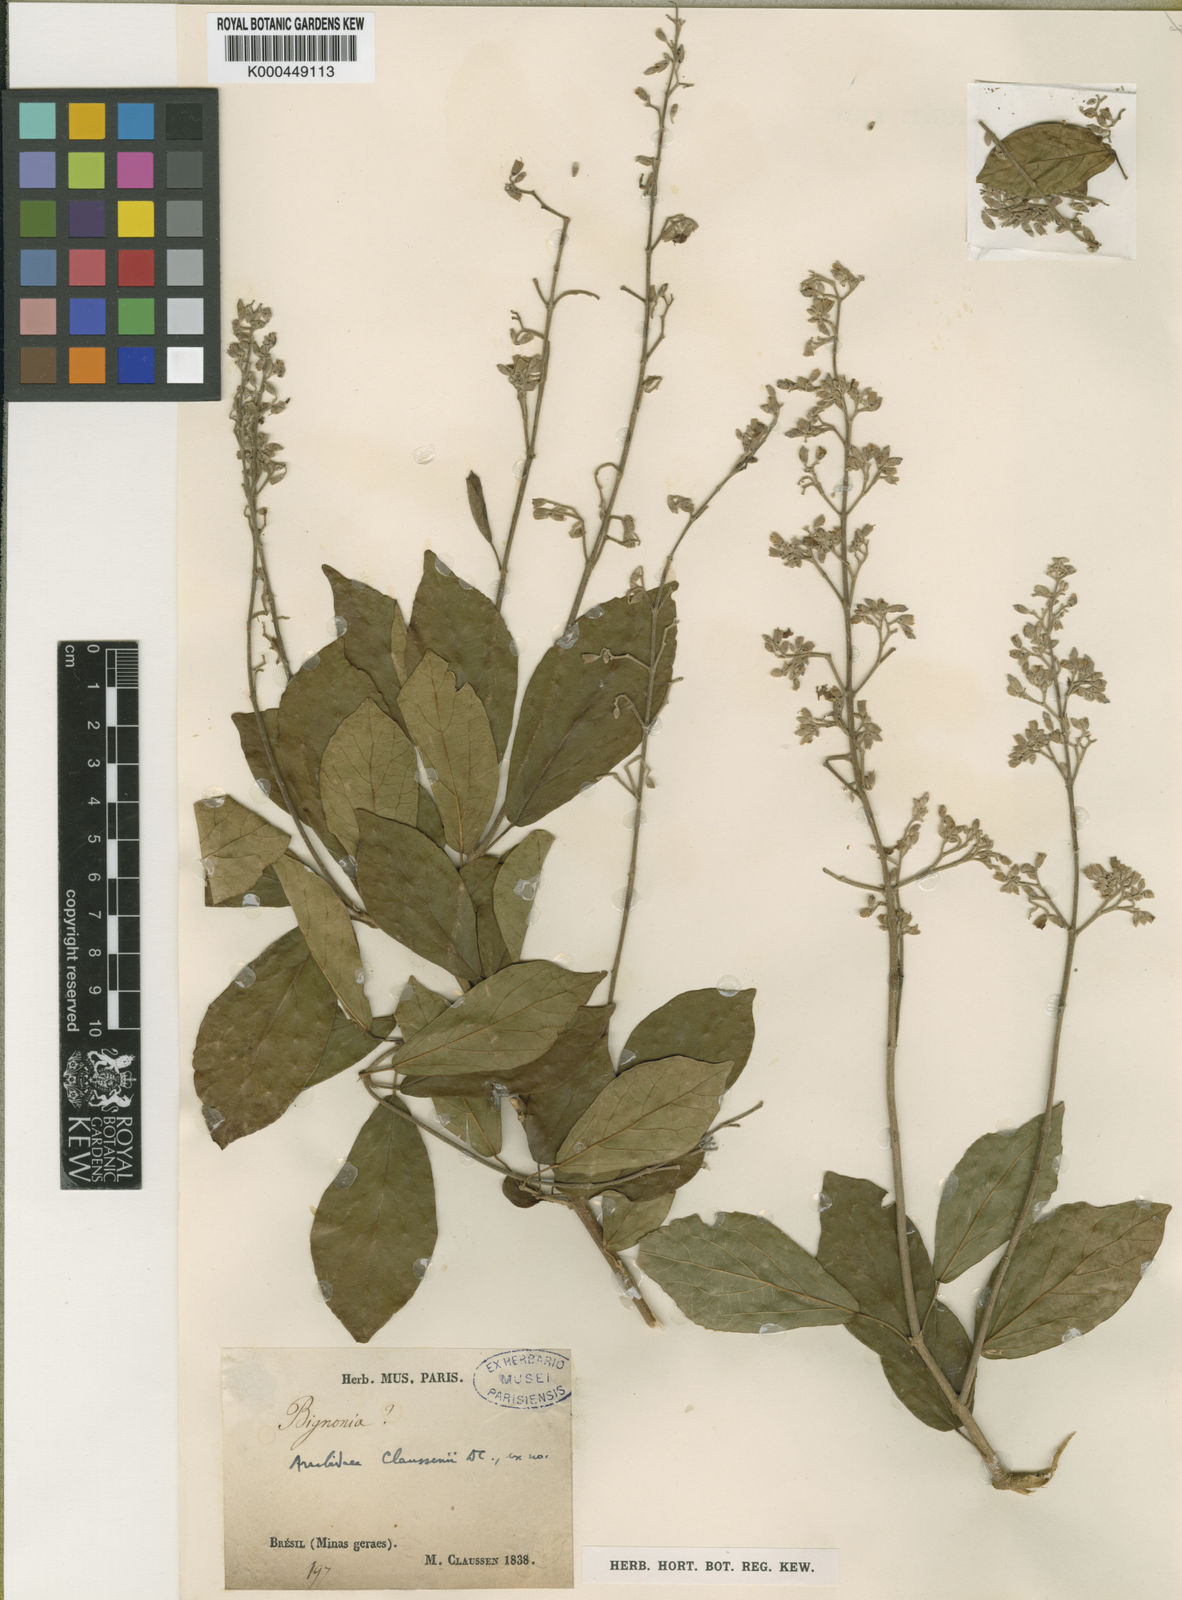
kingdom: Plantae
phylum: Tracheophyta
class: Magnoliopsida
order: Lamiales
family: Bignoniaceae
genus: Xylophragma
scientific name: Xylophragma claussenii
